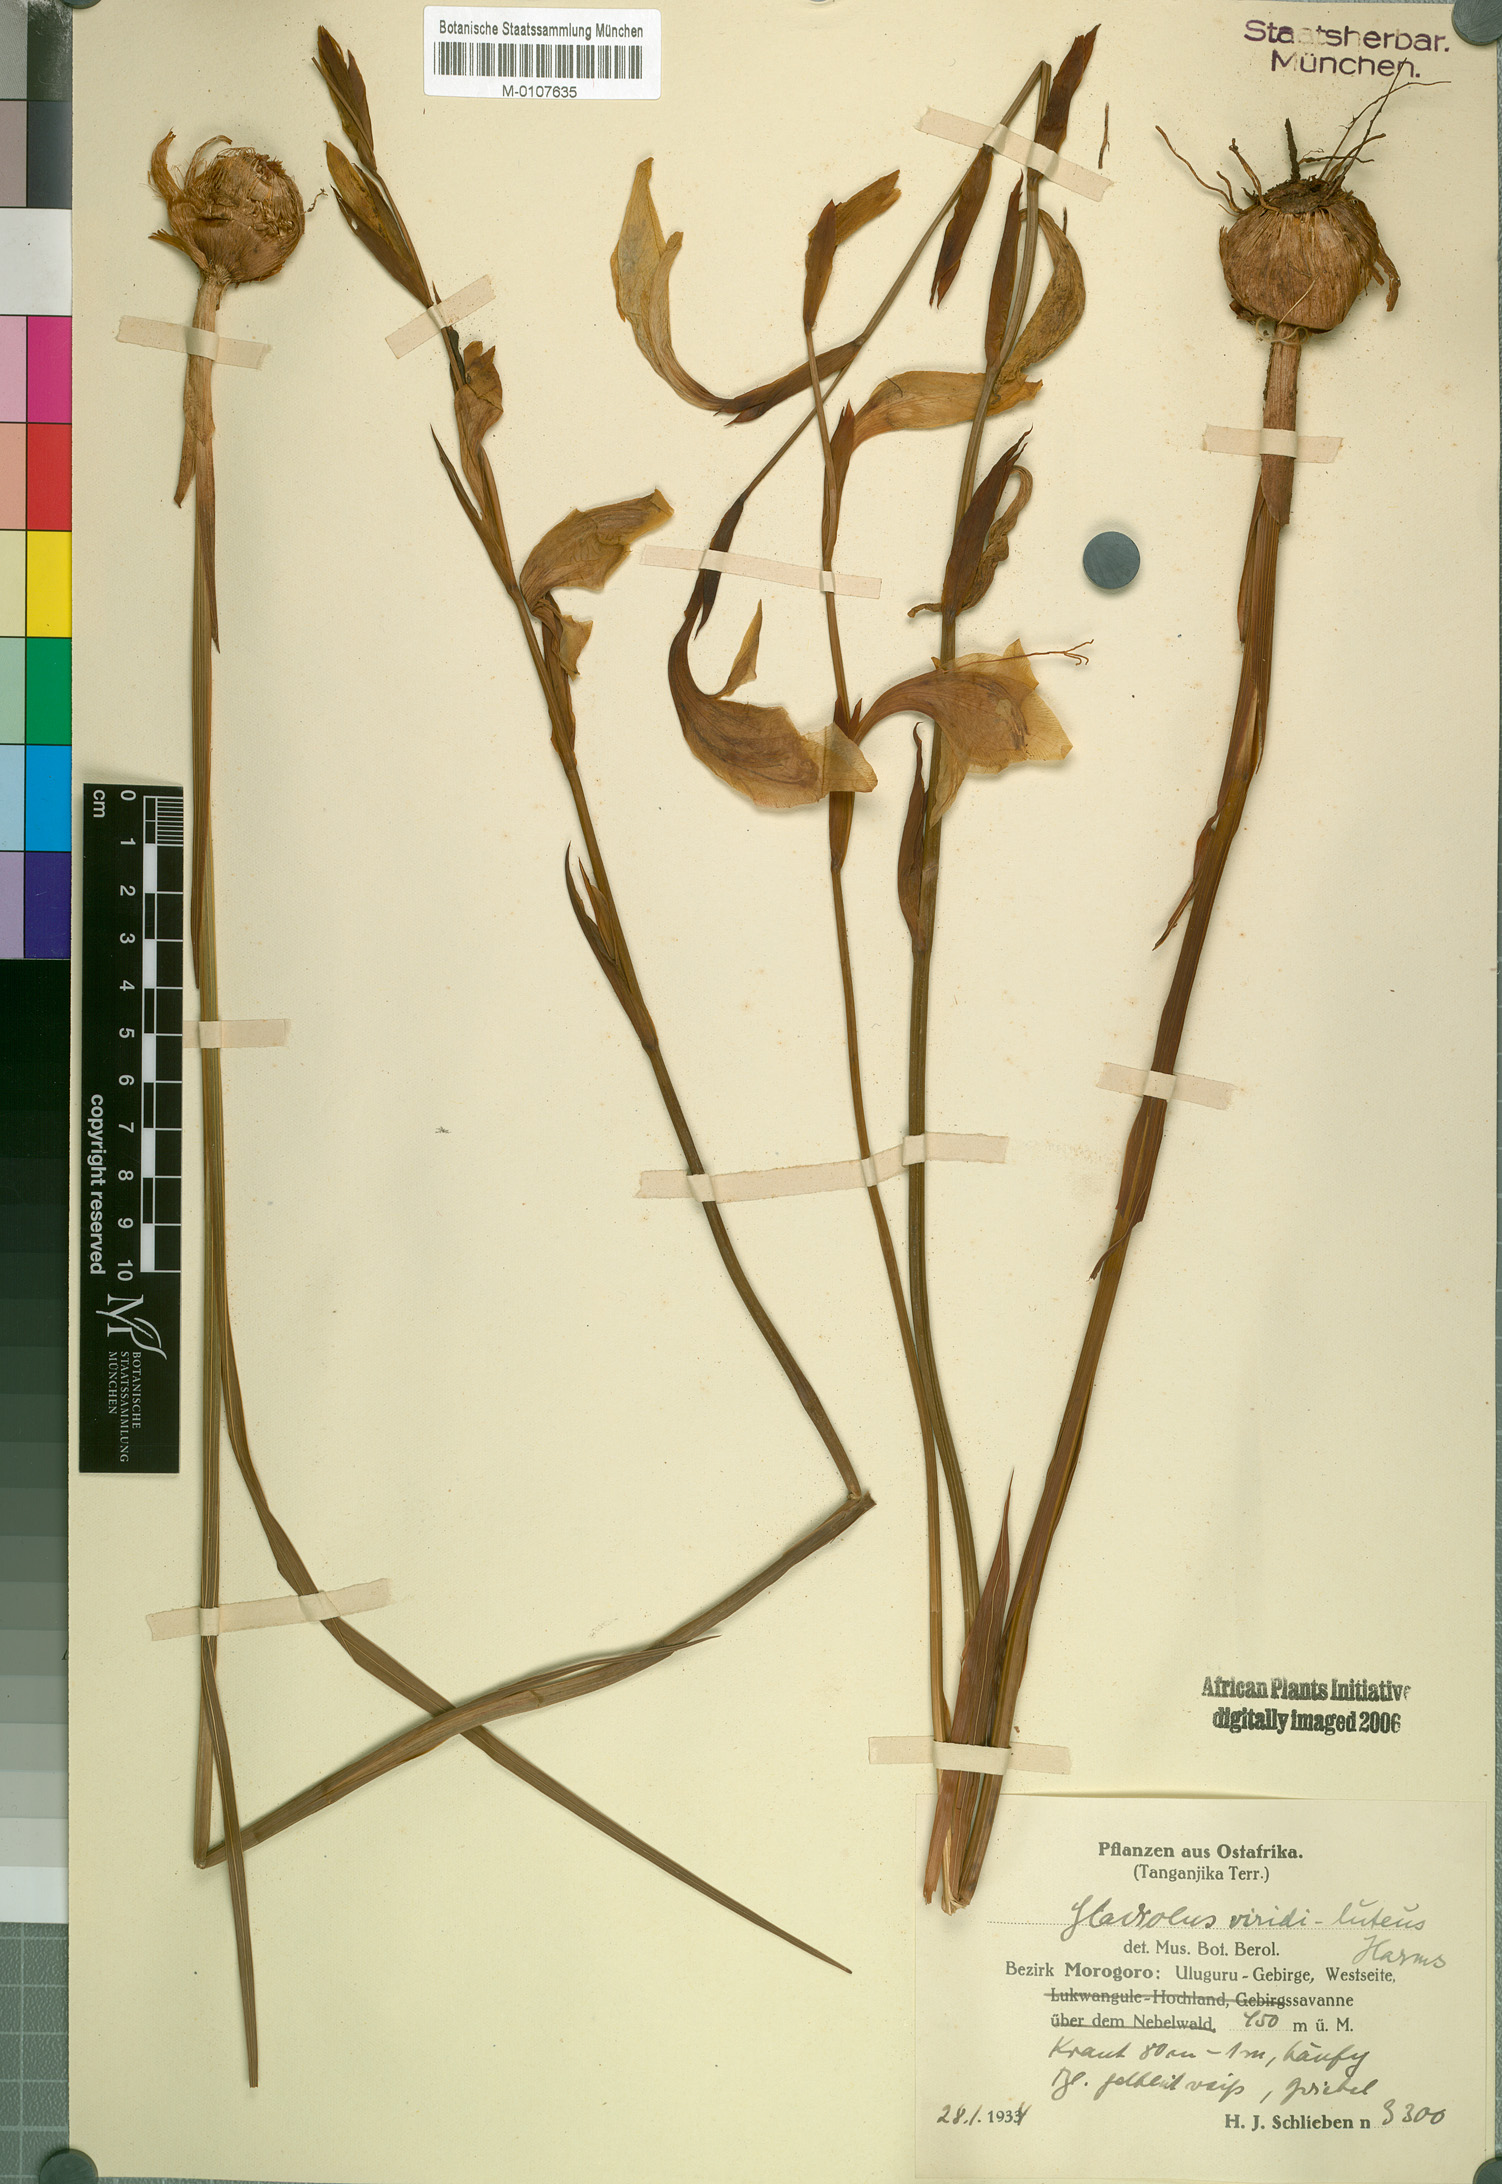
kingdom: Plantae
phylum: Tracheophyta
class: Liliopsida
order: Asparagales
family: Iridaceae
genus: Gladiolus
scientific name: Gladiolus
